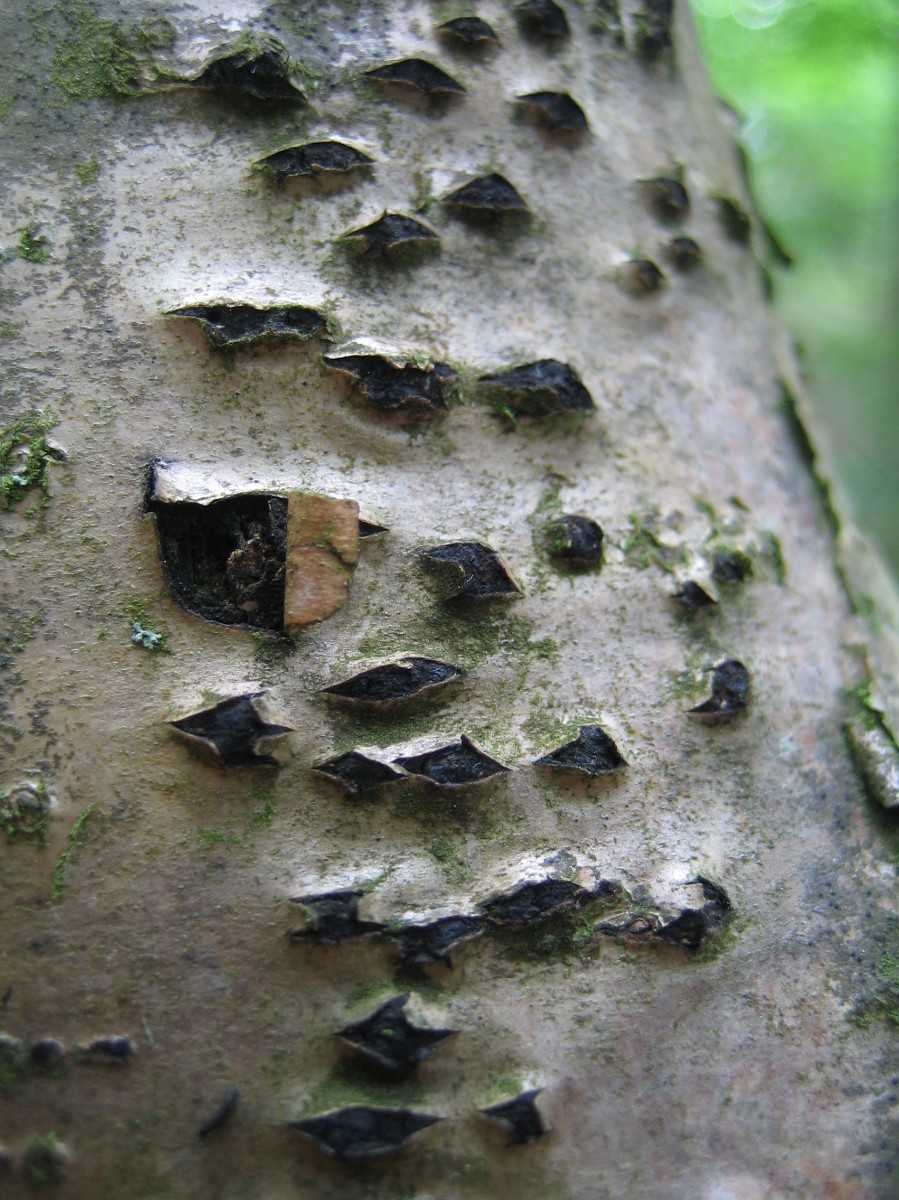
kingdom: Fungi
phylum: Ascomycota
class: Sordariomycetes
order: Xylariales
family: Diatrypaceae
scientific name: Diatrypaceae
